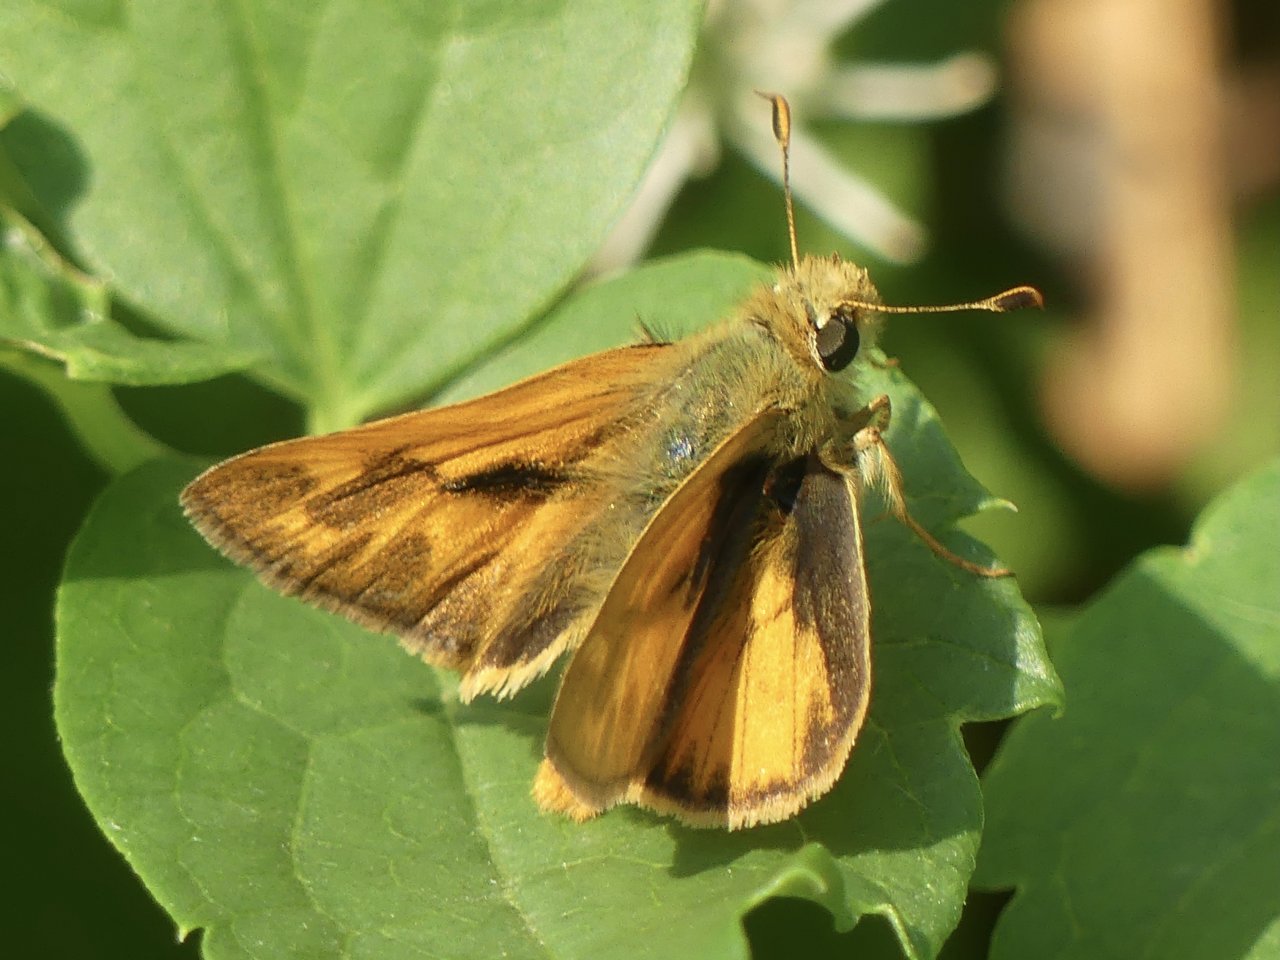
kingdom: Animalia
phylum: Arthropoda
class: Insecta
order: Lepidoptera
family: Hesperiidae
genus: Ochlodes
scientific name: Ochlodes sylvanoides
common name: Woodland Skipper
